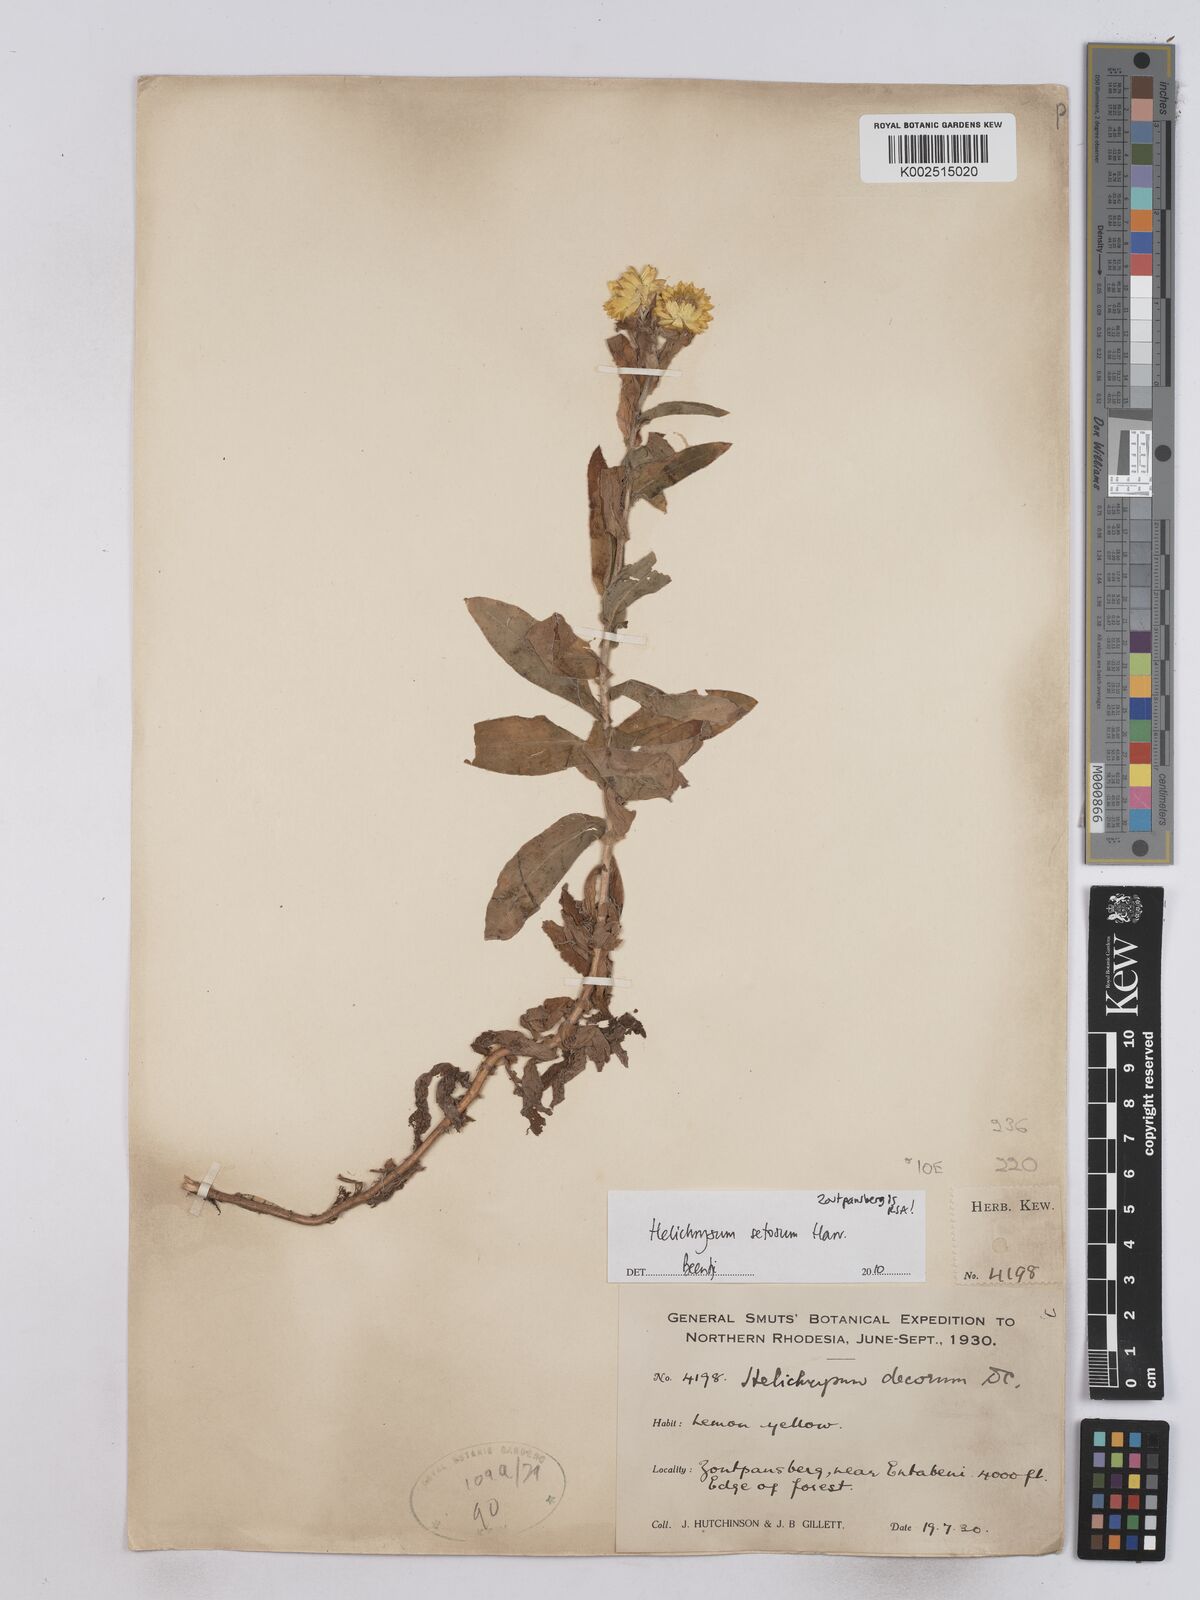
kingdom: Plantae
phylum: Tracheophyta
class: Magnoliopsida
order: Asterales
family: Asteraceae
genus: Helichrysum
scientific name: Helichrysum setosum
